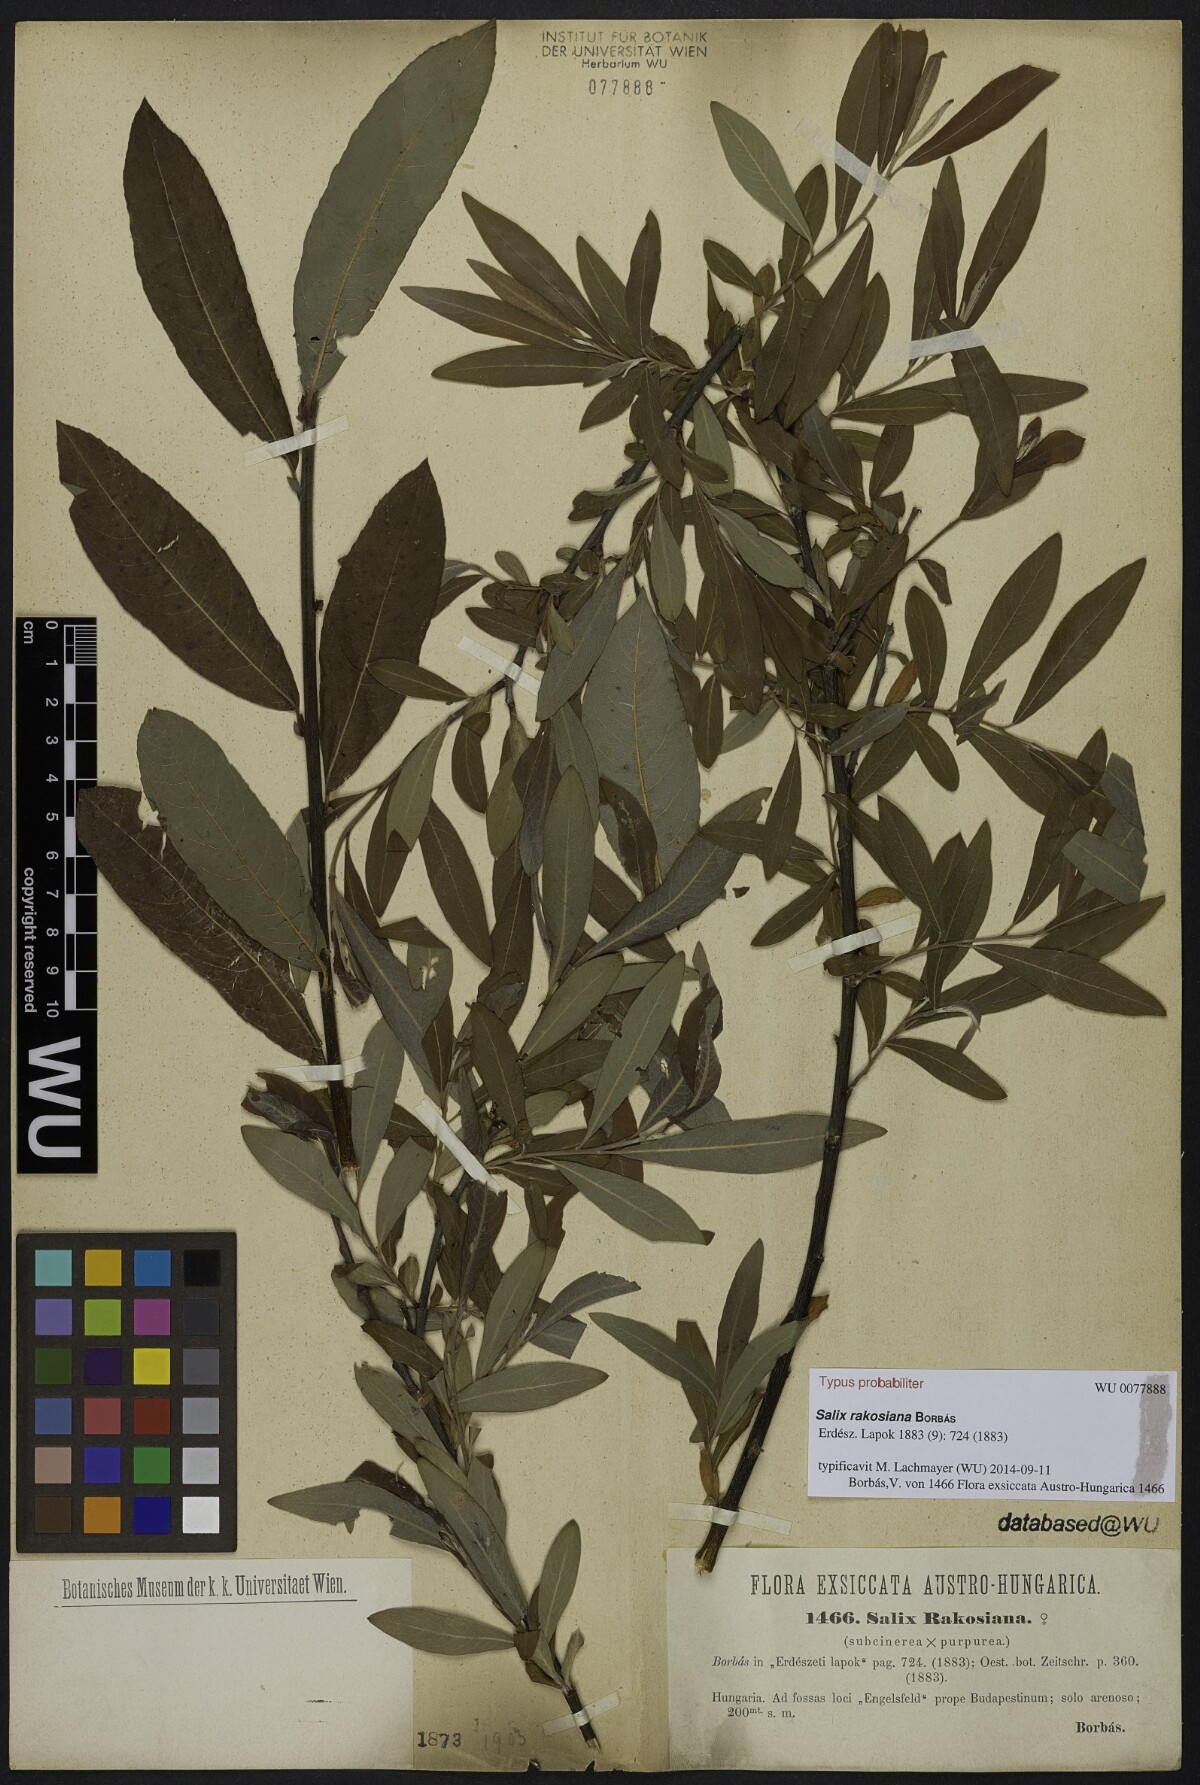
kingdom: Plantae
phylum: Tracheophyta
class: Magnoliopsida
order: Malpighiales
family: Salicaceae
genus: Salix
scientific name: Salix austriaca
